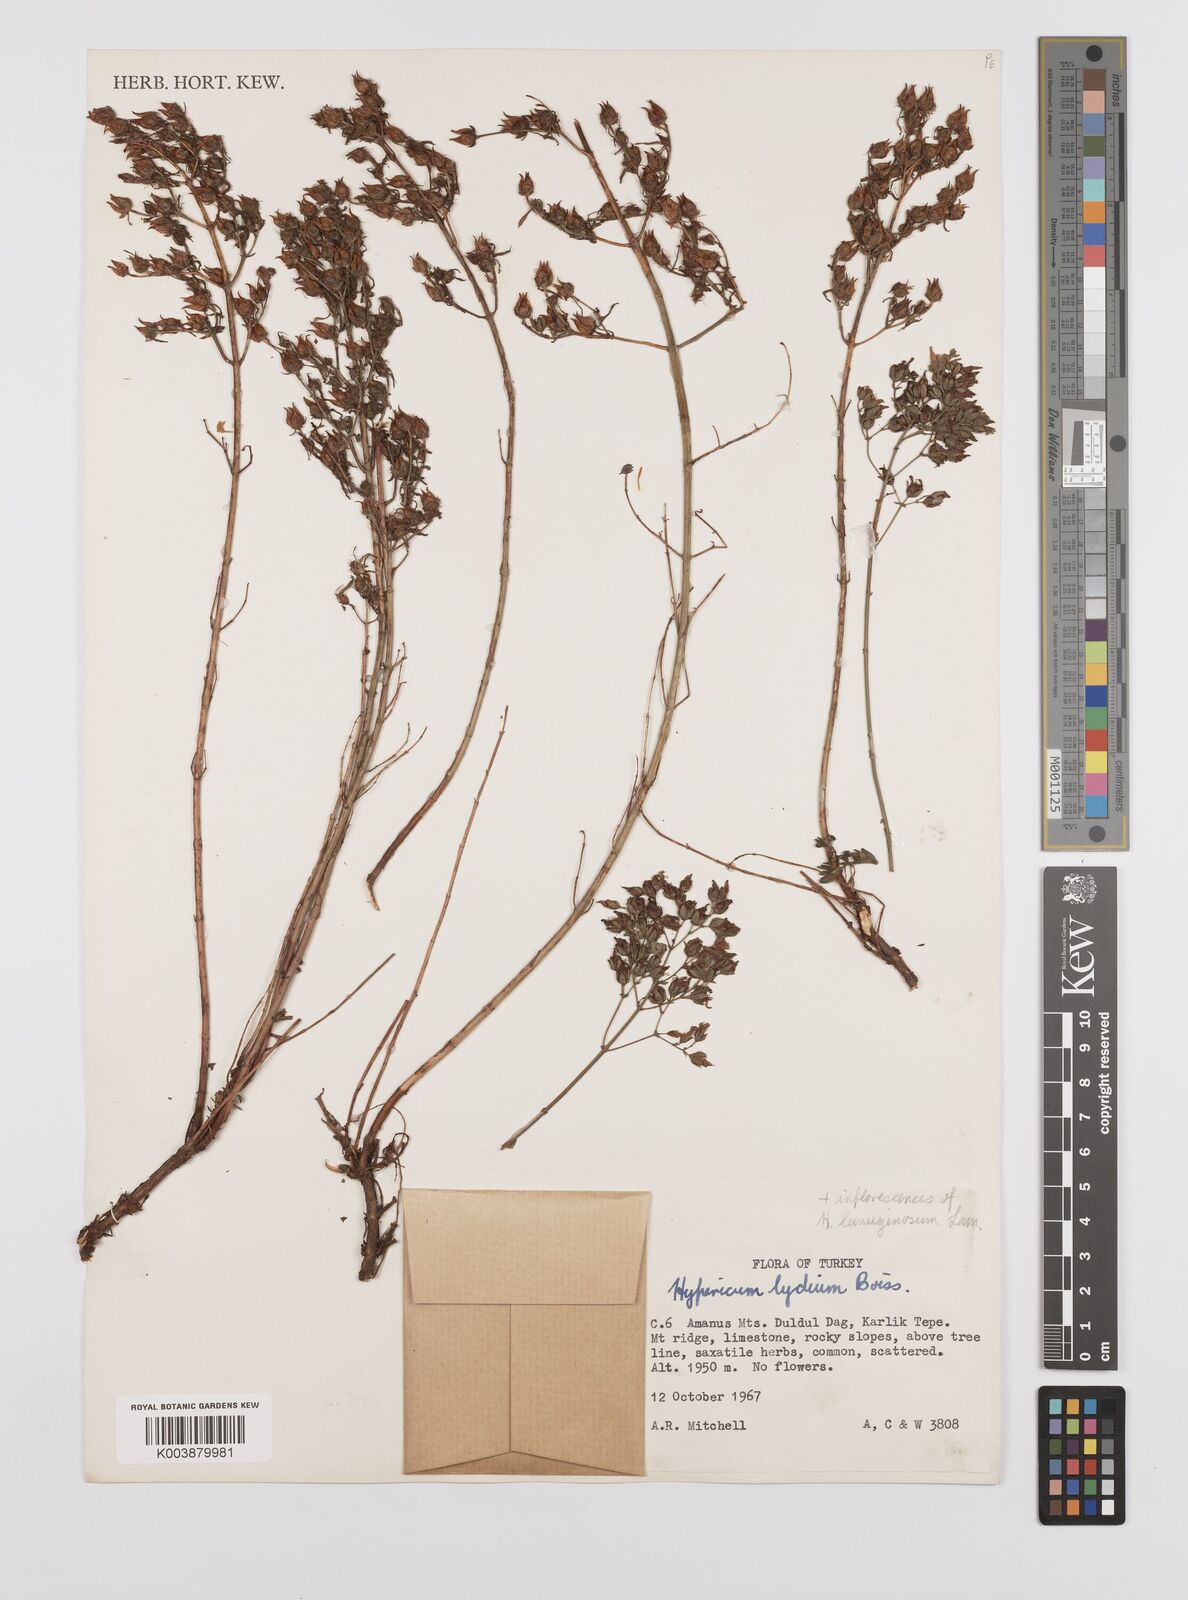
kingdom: Plantae
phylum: Tracheophyta
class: Magnoliopsida
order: Malpighiales
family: Hypericaceae
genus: Hypericum
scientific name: Hypericum lydium
